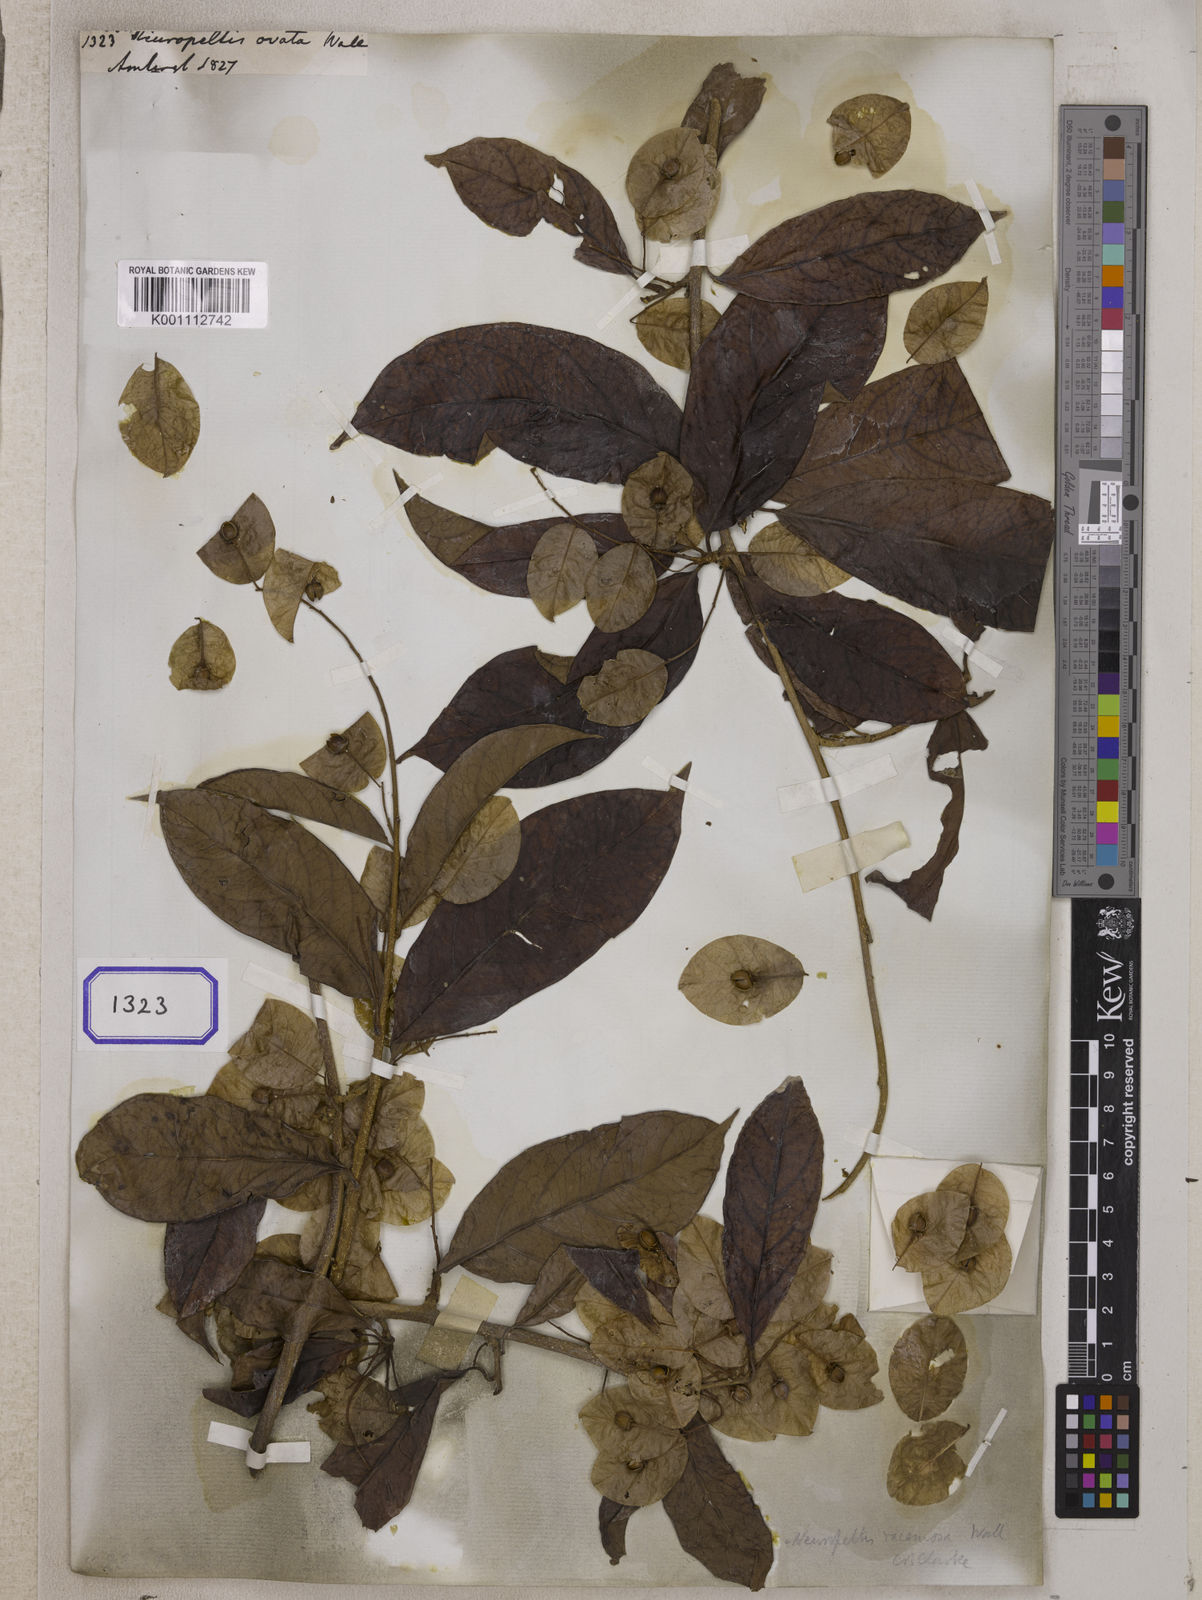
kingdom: Plantae
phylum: Tracheophyta
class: Magnoliopsida
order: Solanales
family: Convolvulaceae
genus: Neuropeltis
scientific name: Neuropeltis racemosa
